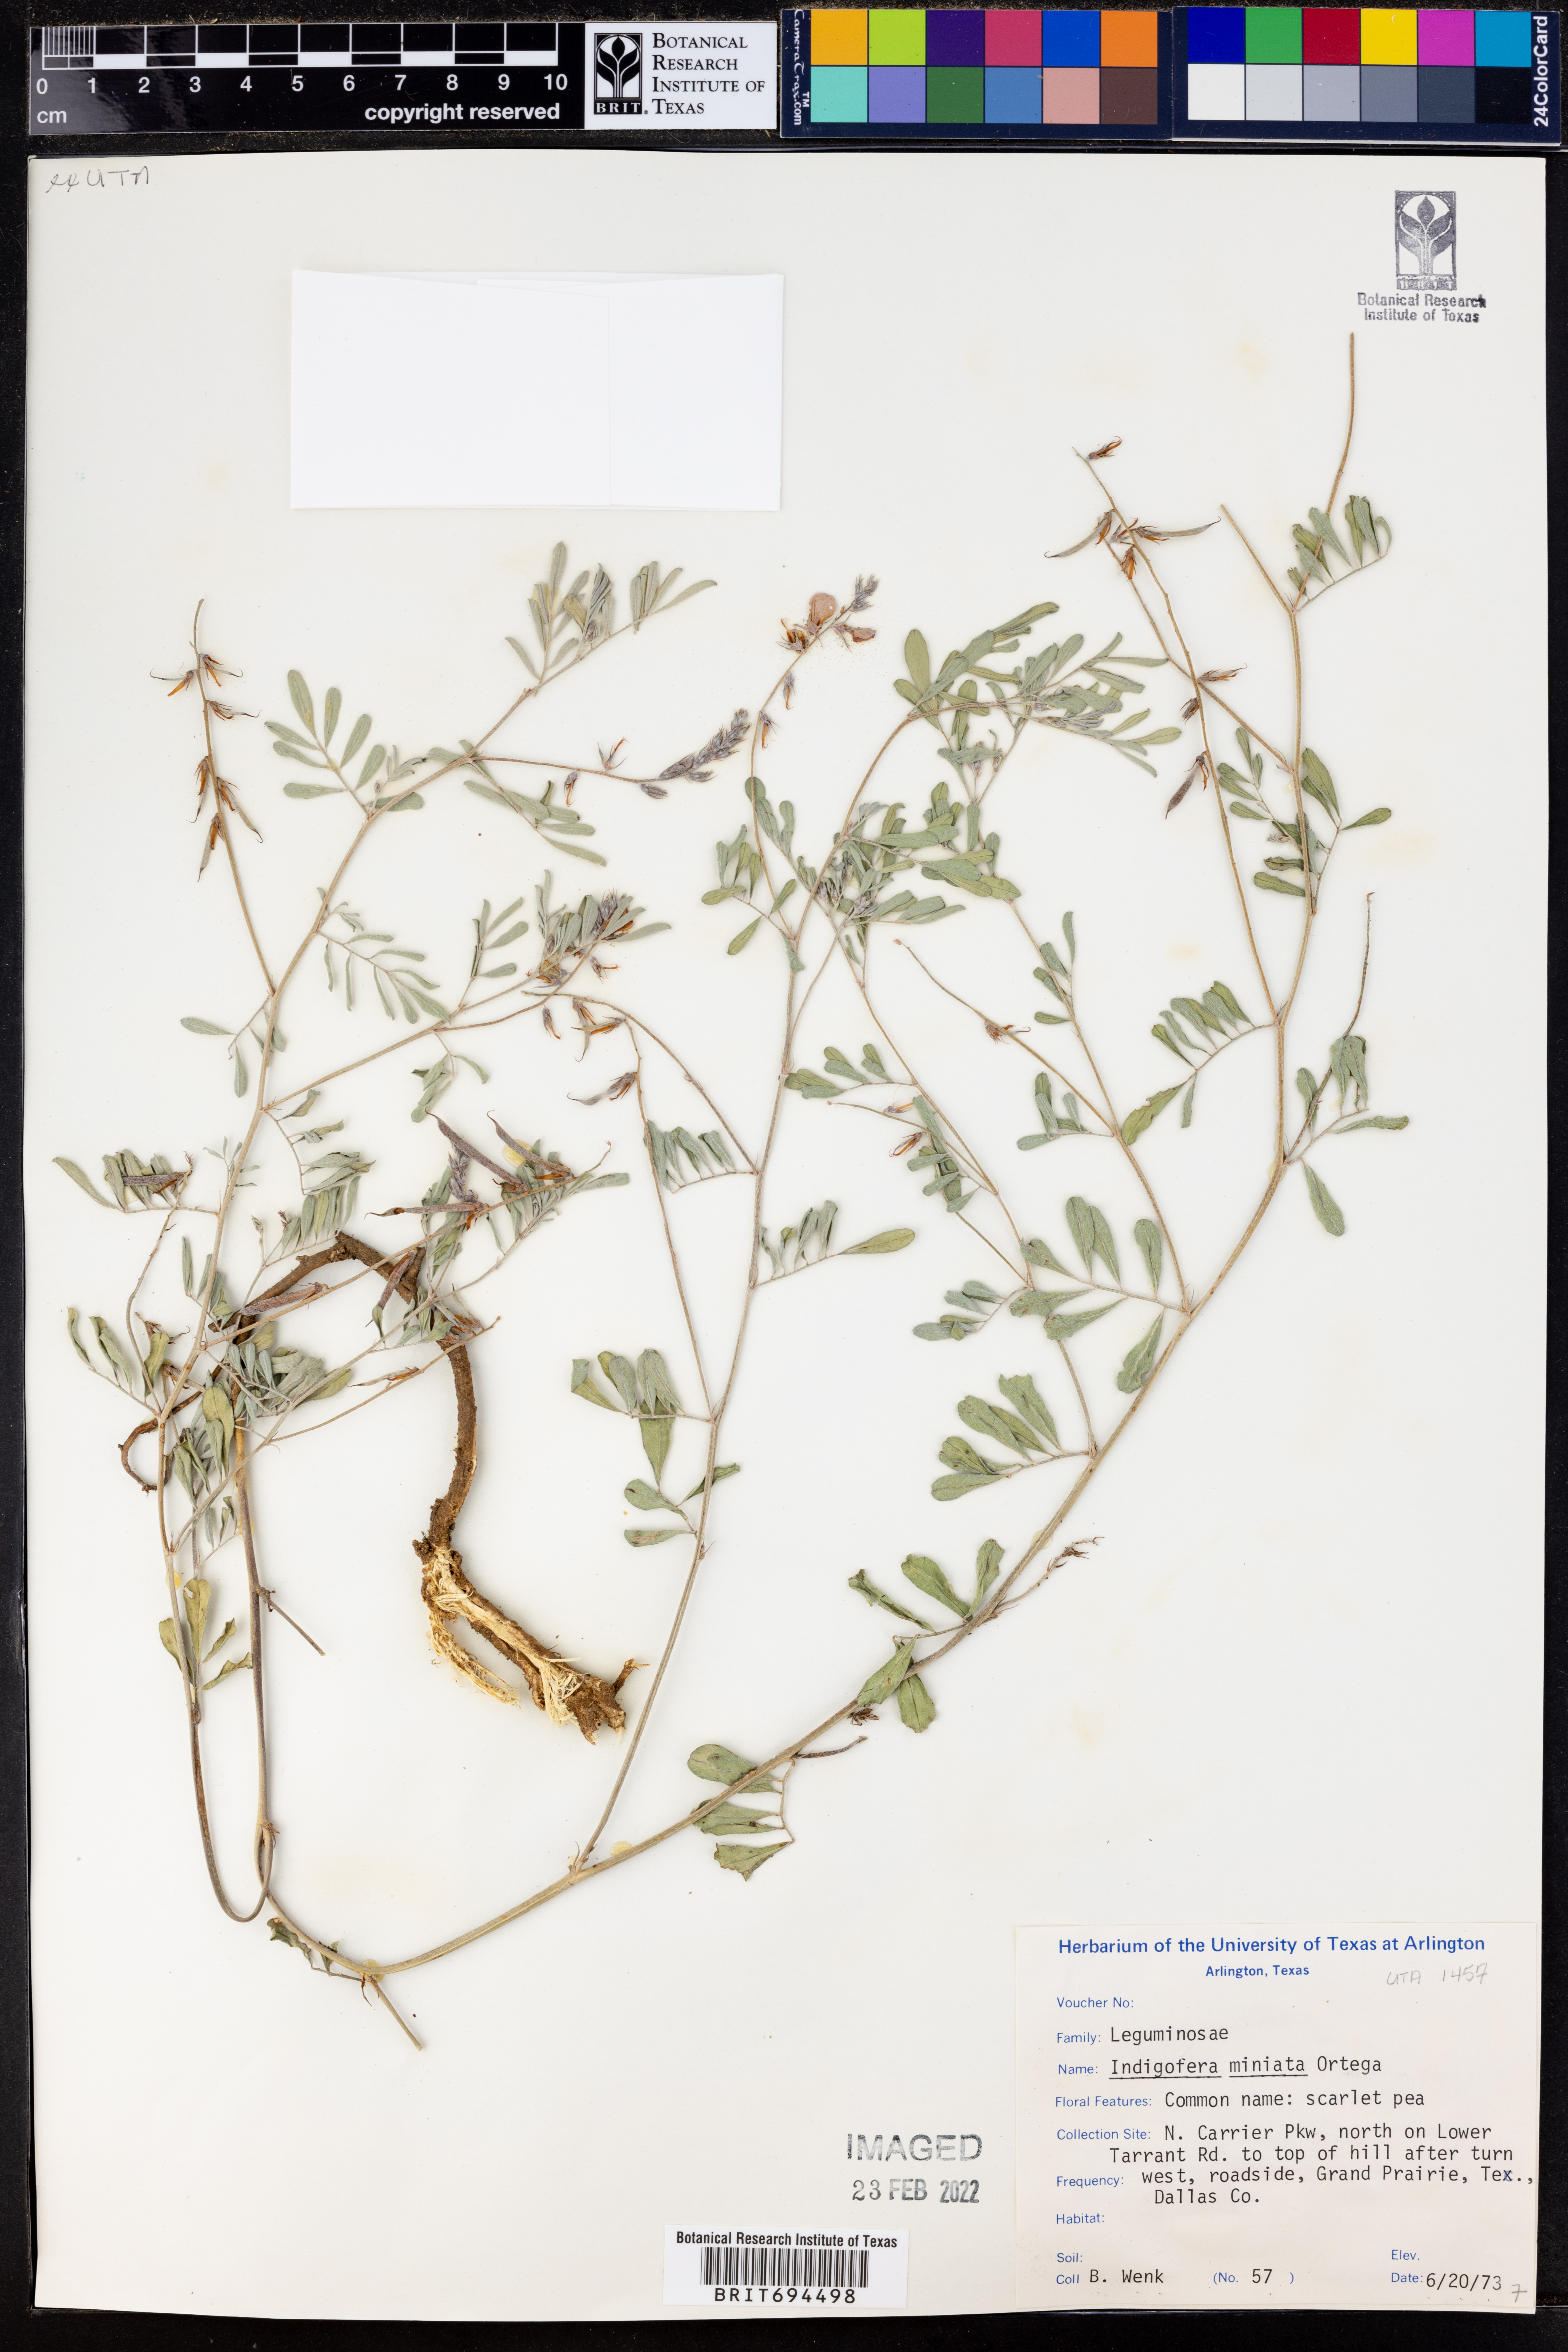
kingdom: Plantae
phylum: Tracheophyta
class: Magnoliopsida
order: Fabales
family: Fabaceae
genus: Indigofera
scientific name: Indigofera miniata
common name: Coast indigo
